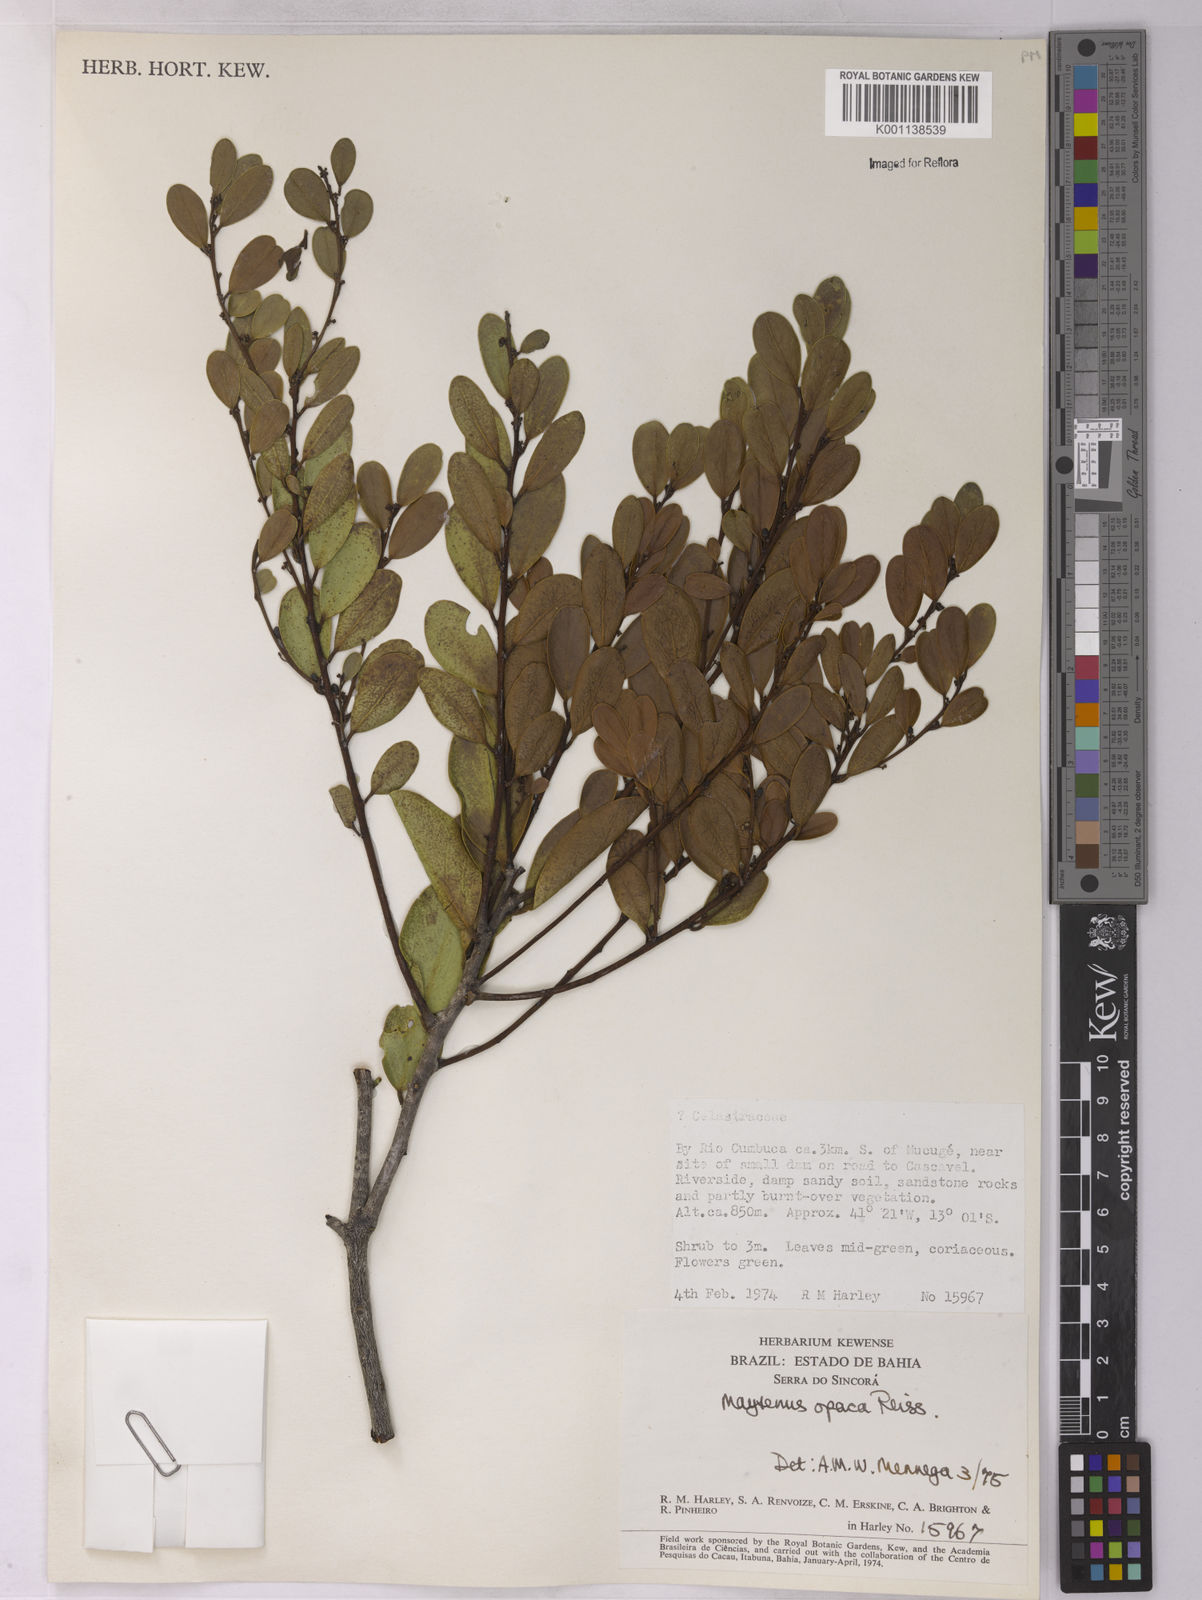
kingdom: Plantae
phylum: Tracheophyta
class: Magnoliopsida
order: Celastrales
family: Celastraceae
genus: Monteverdia
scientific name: Monteverdia opaca
